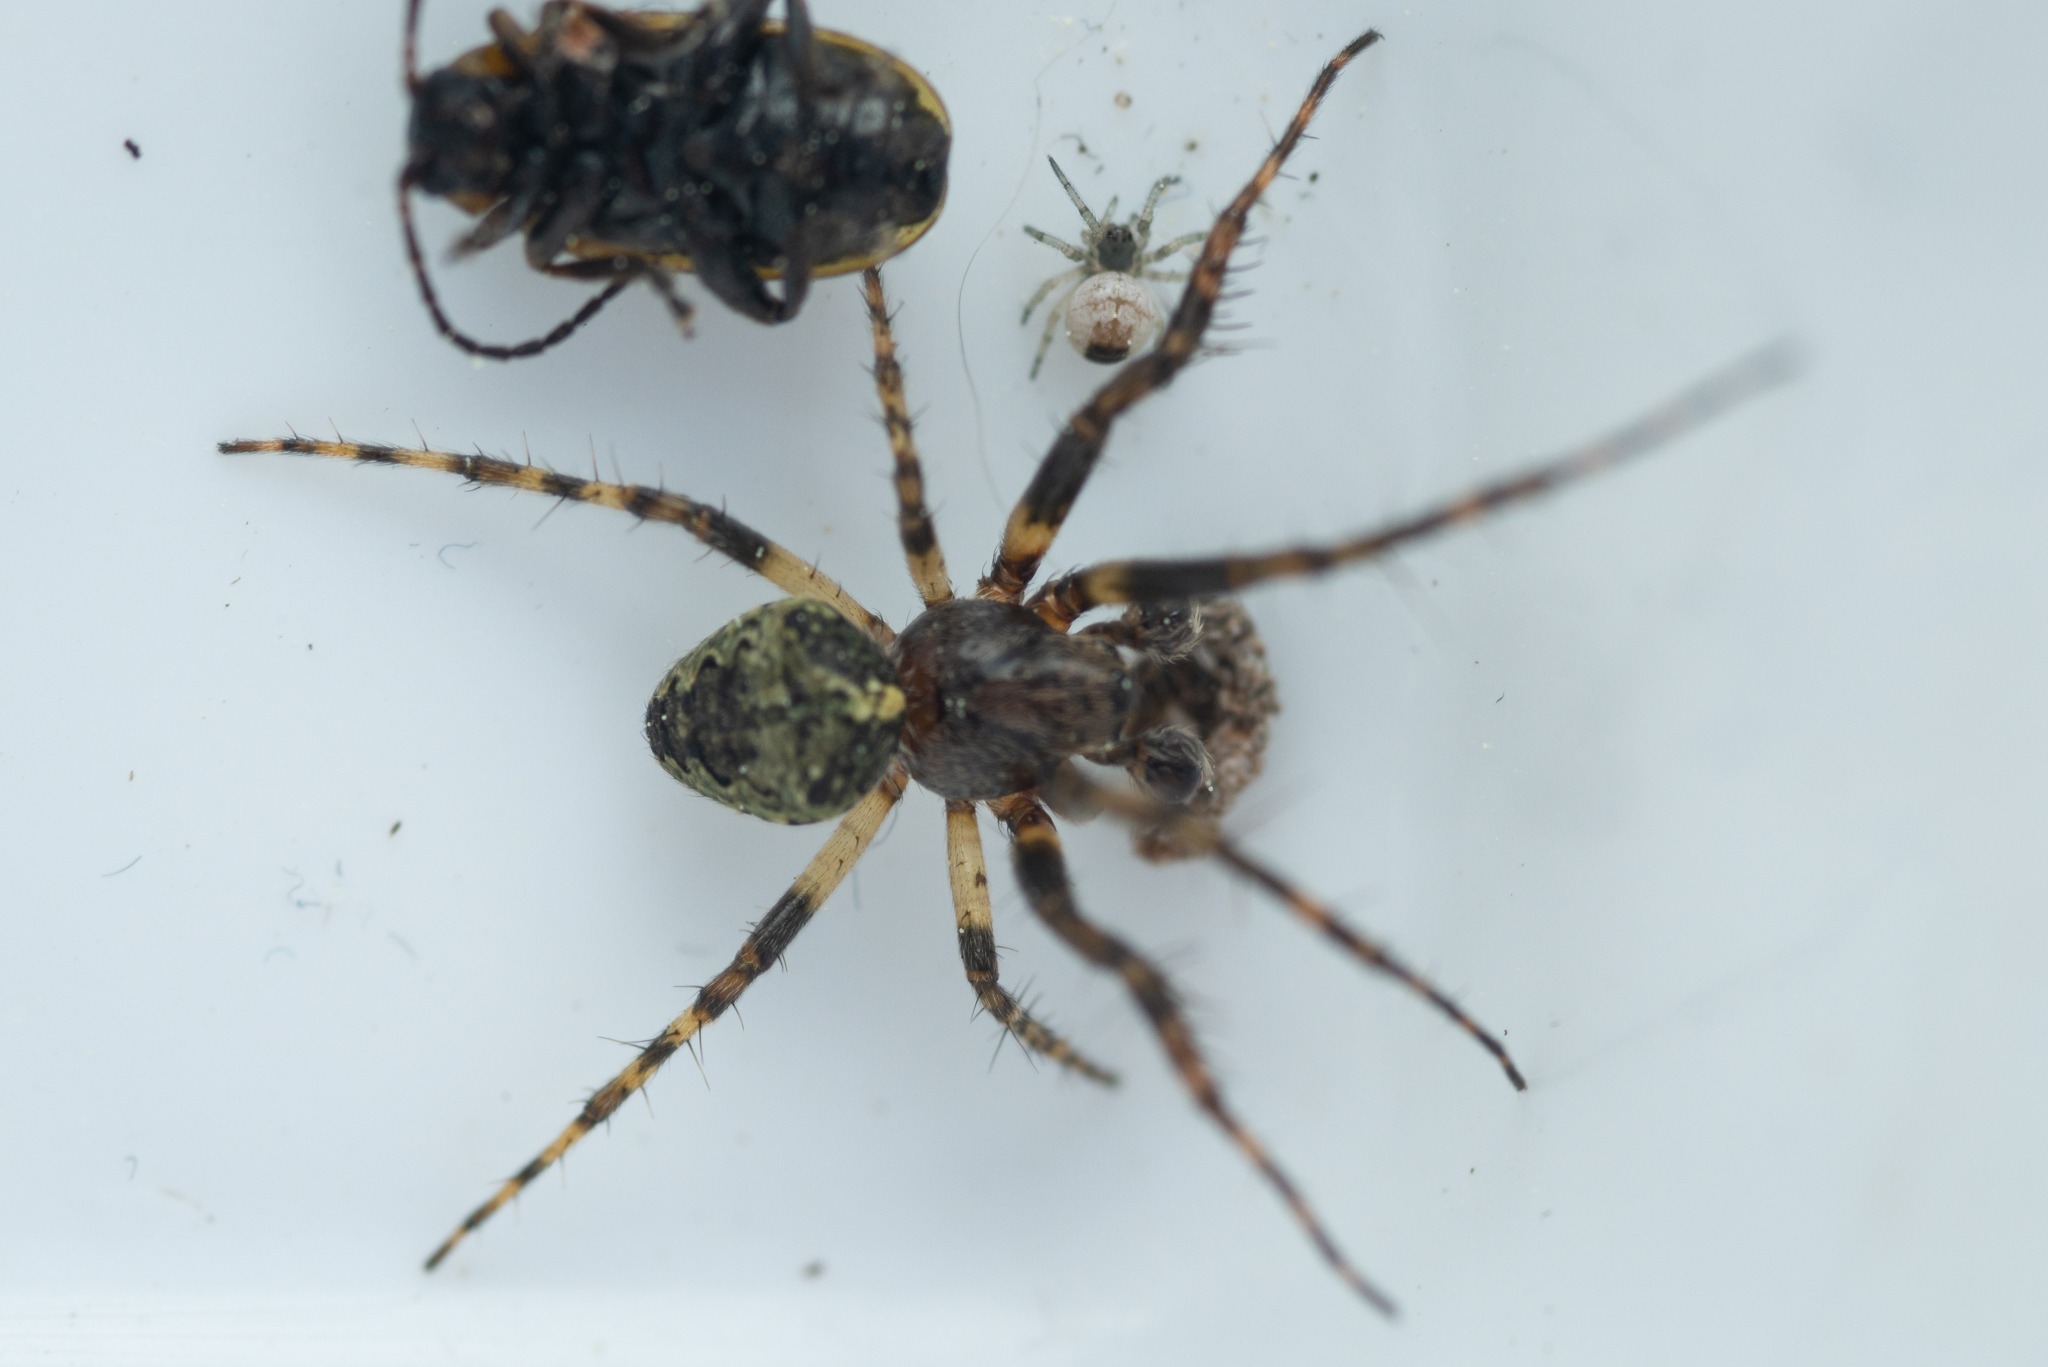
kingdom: Animalia
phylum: Arthropoda
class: Arachnida
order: Araneae
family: Araneidae
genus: Gibbaranea
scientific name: Gibbaranea gibbosa
